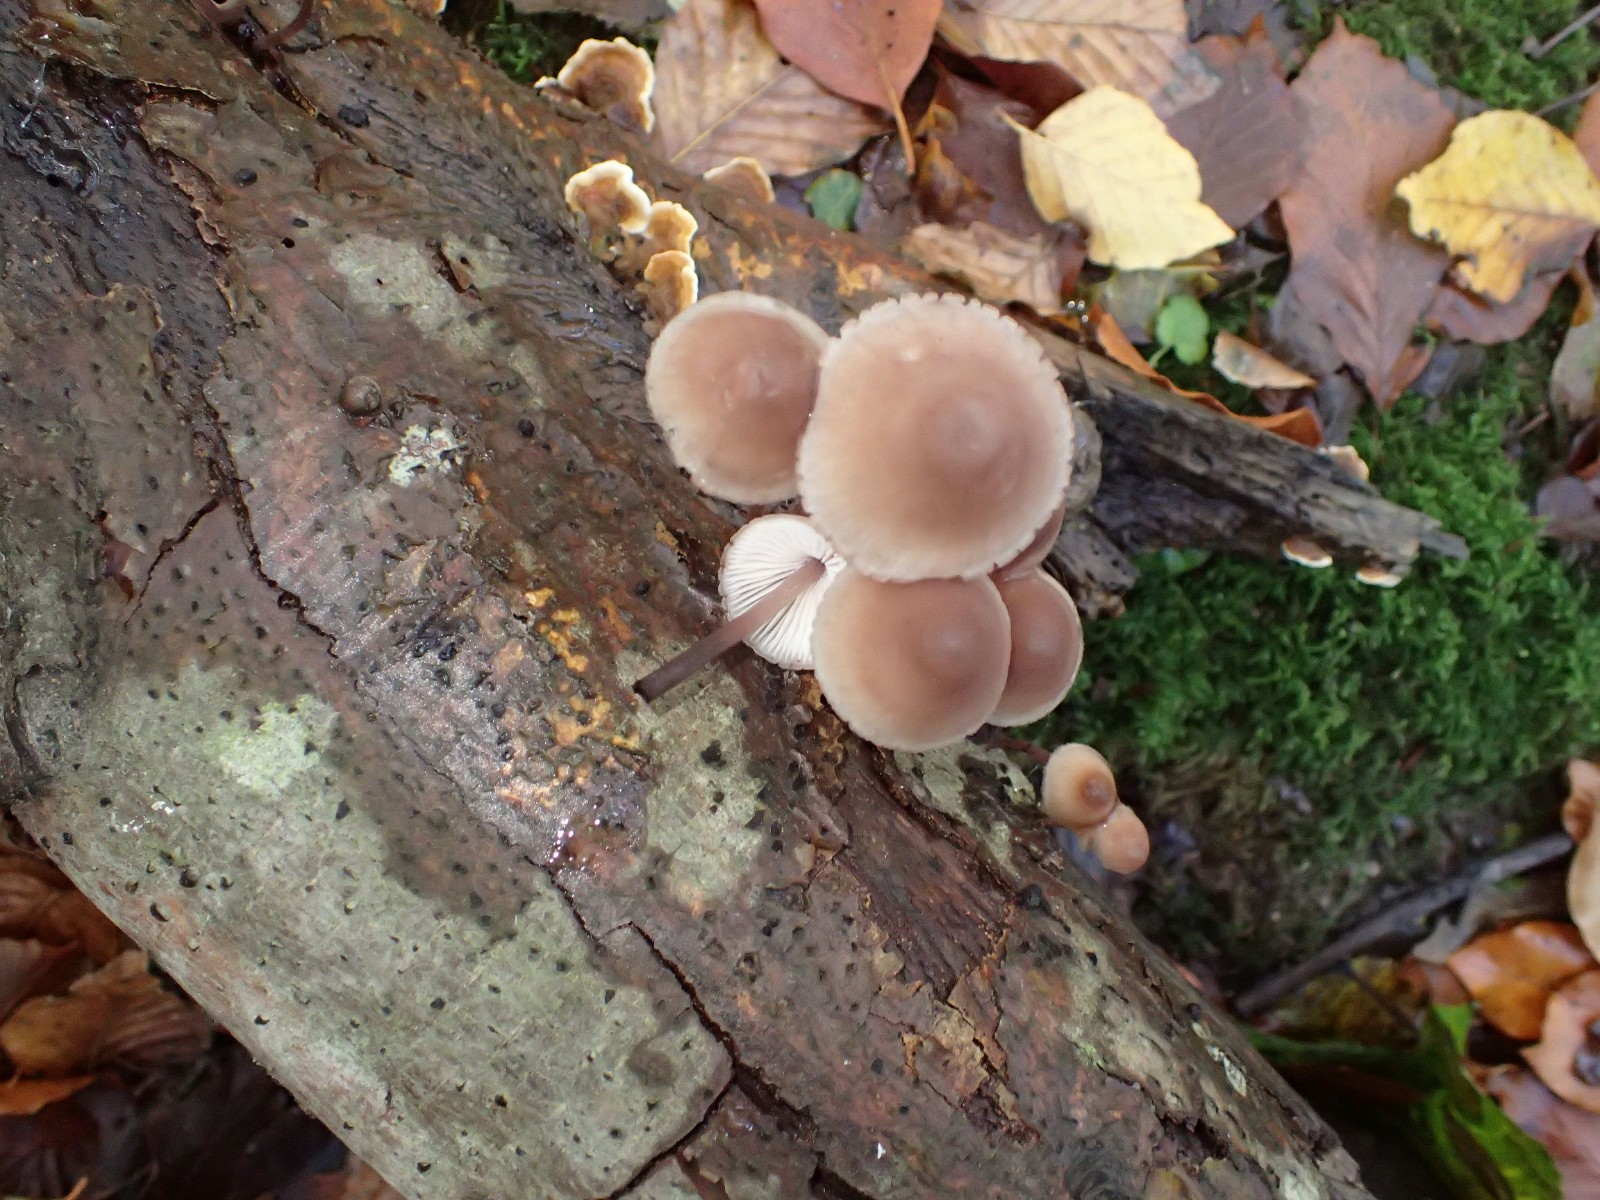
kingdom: Fungi
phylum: Basidiomycota
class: Agaricomycetes
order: Agaricales
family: Mycenaceae
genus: Mycena
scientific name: Mycena haematopus
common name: blødende huesvamp
